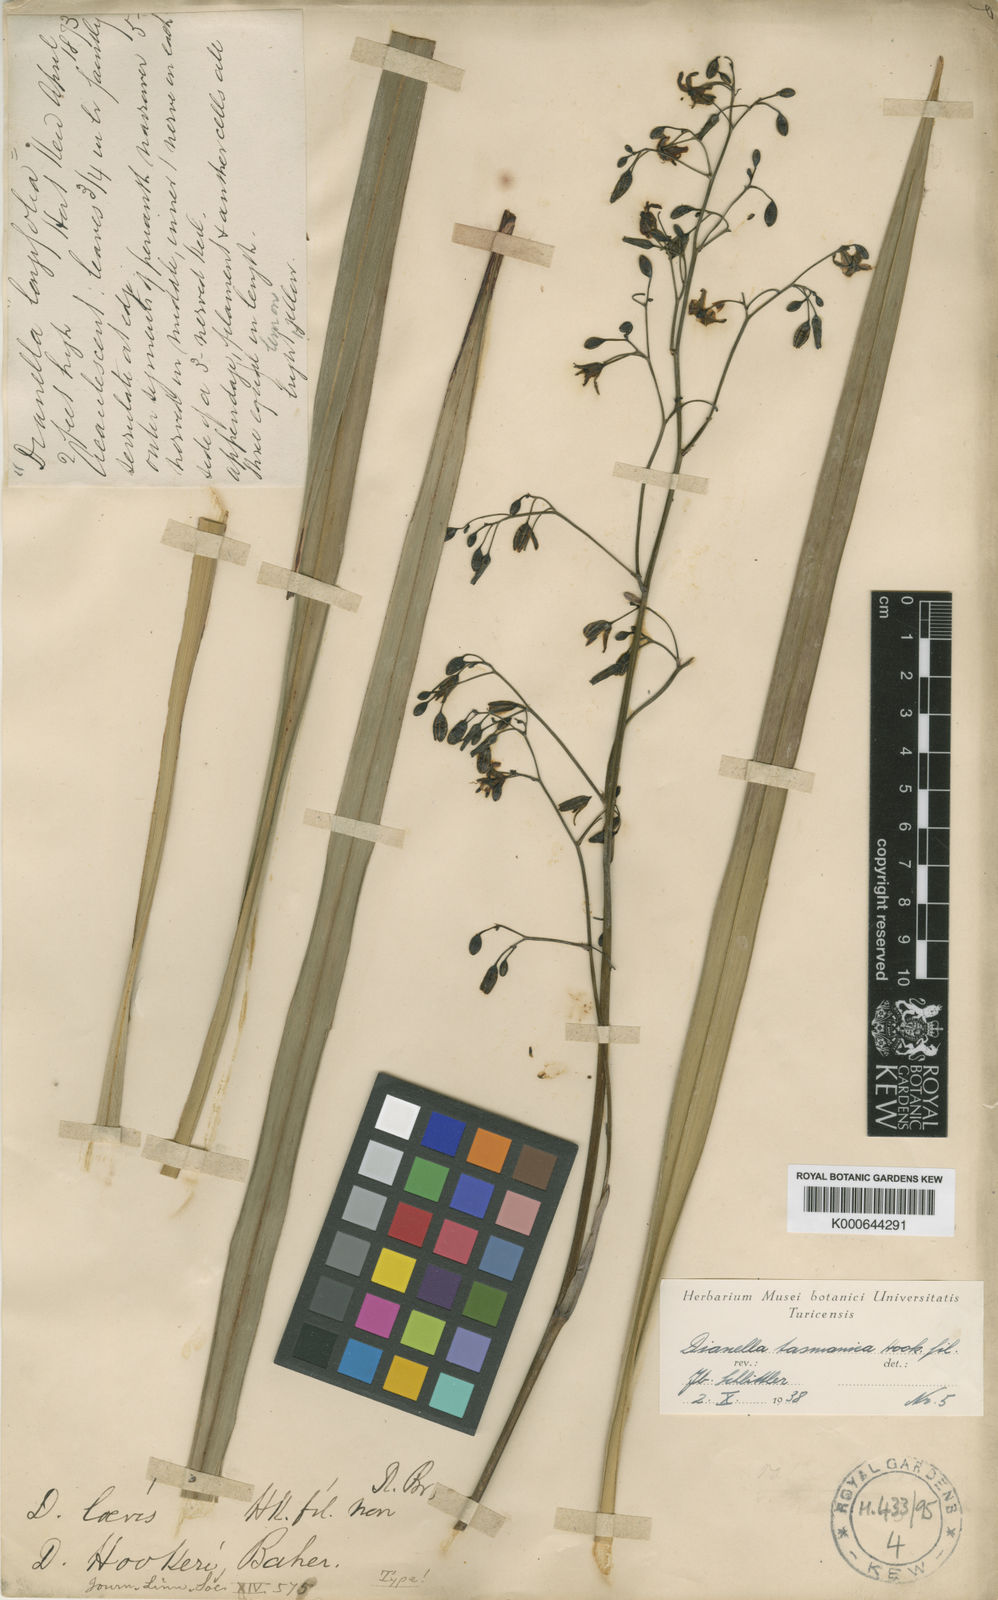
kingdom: Plantae
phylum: Tracheophyta
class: Liliopsida
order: Asparagales
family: Asphodelaceae
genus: Dianella
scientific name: Dianella tasmanica
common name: Tasman flax-lily
